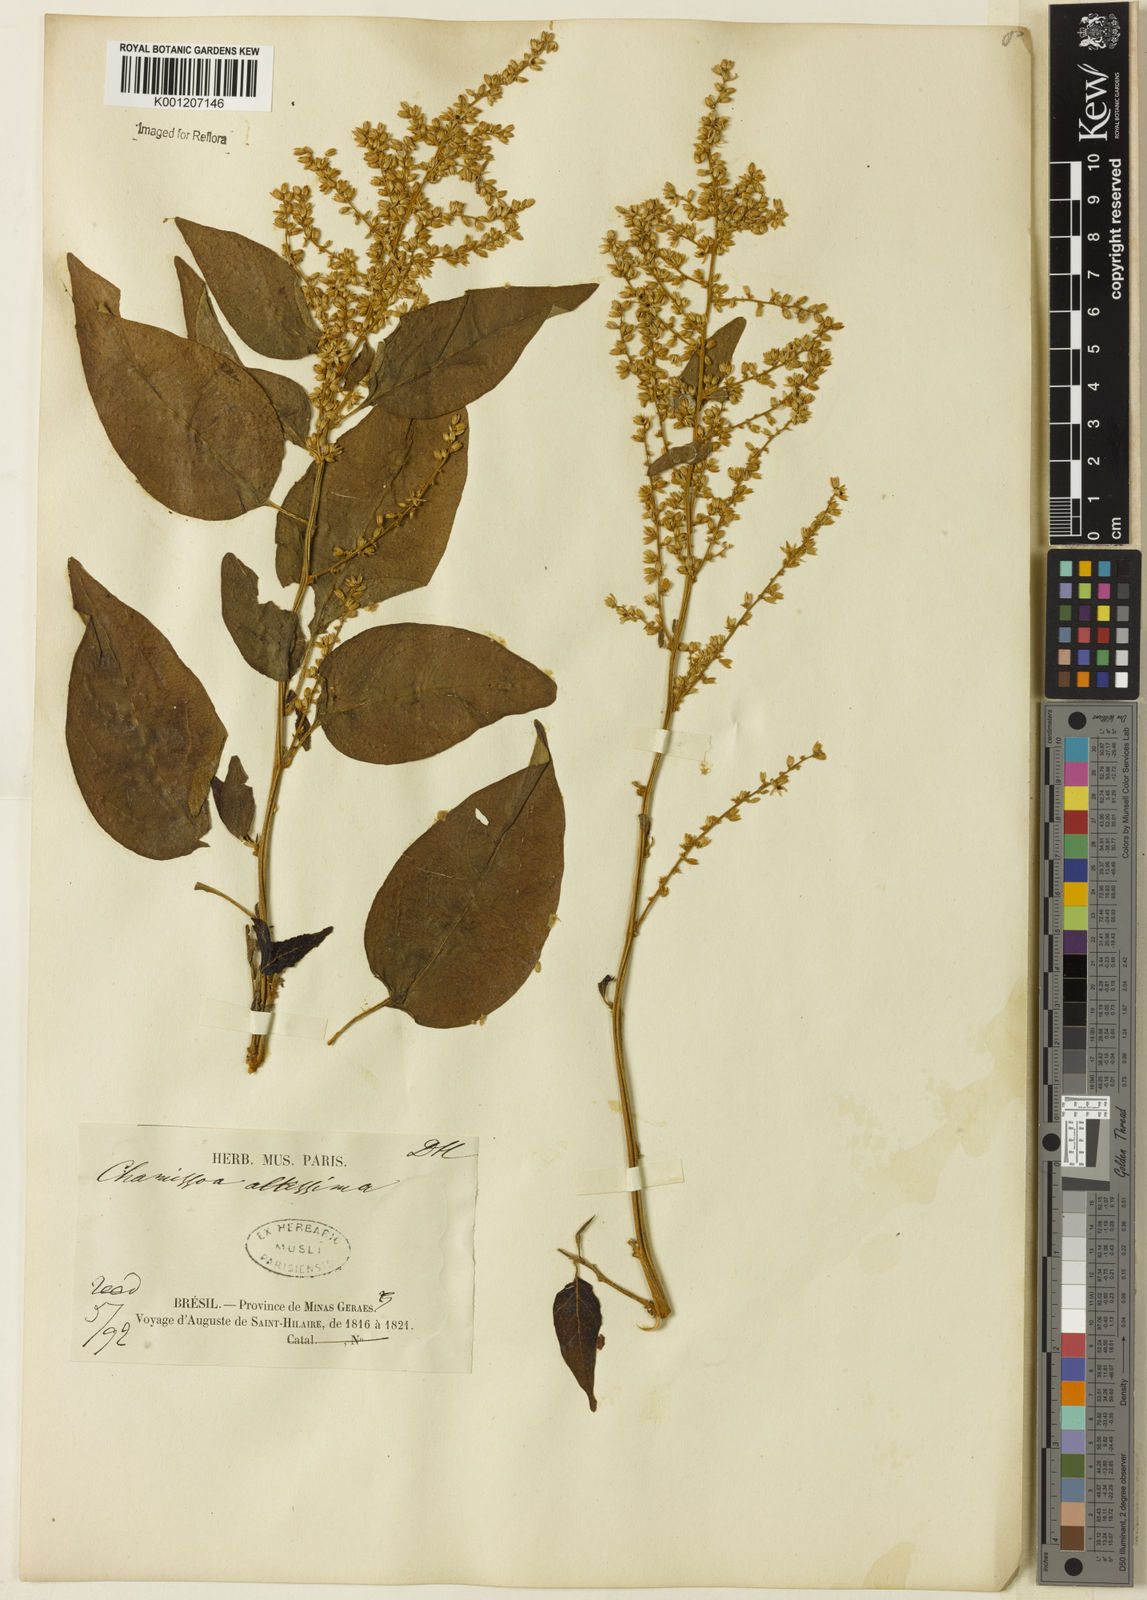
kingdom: Plantae
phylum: Tracheophyta
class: Magnoliopsida
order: Caryophyllales
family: Amaranthaceae
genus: Chamissoa
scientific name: Chamissoa altissima
